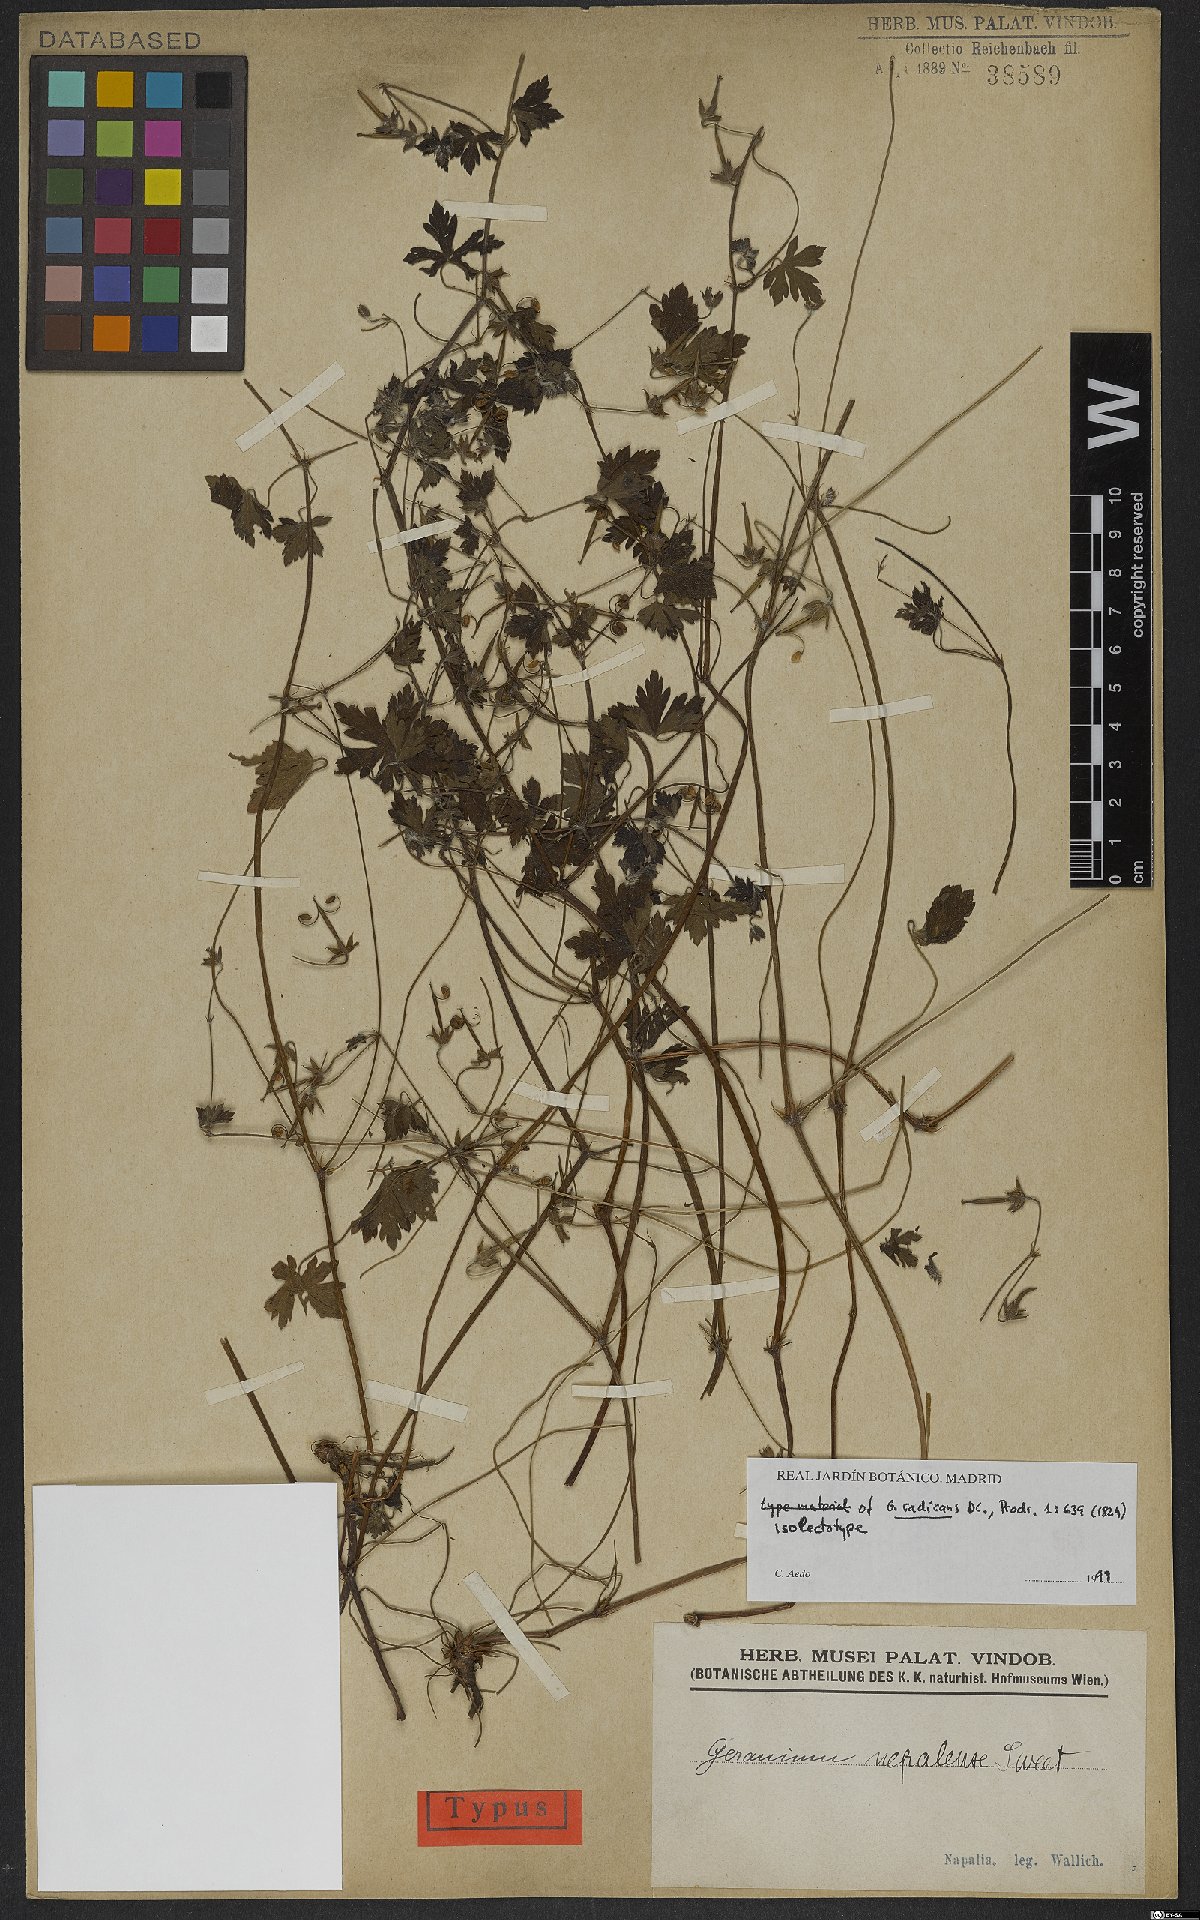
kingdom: Plantae
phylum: Tracheophyta
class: Magnoliopsida
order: Geraniales
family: Geraniaceae
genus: Geranium
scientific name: Geranium nepalense
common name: Nepalese crane's-bill
